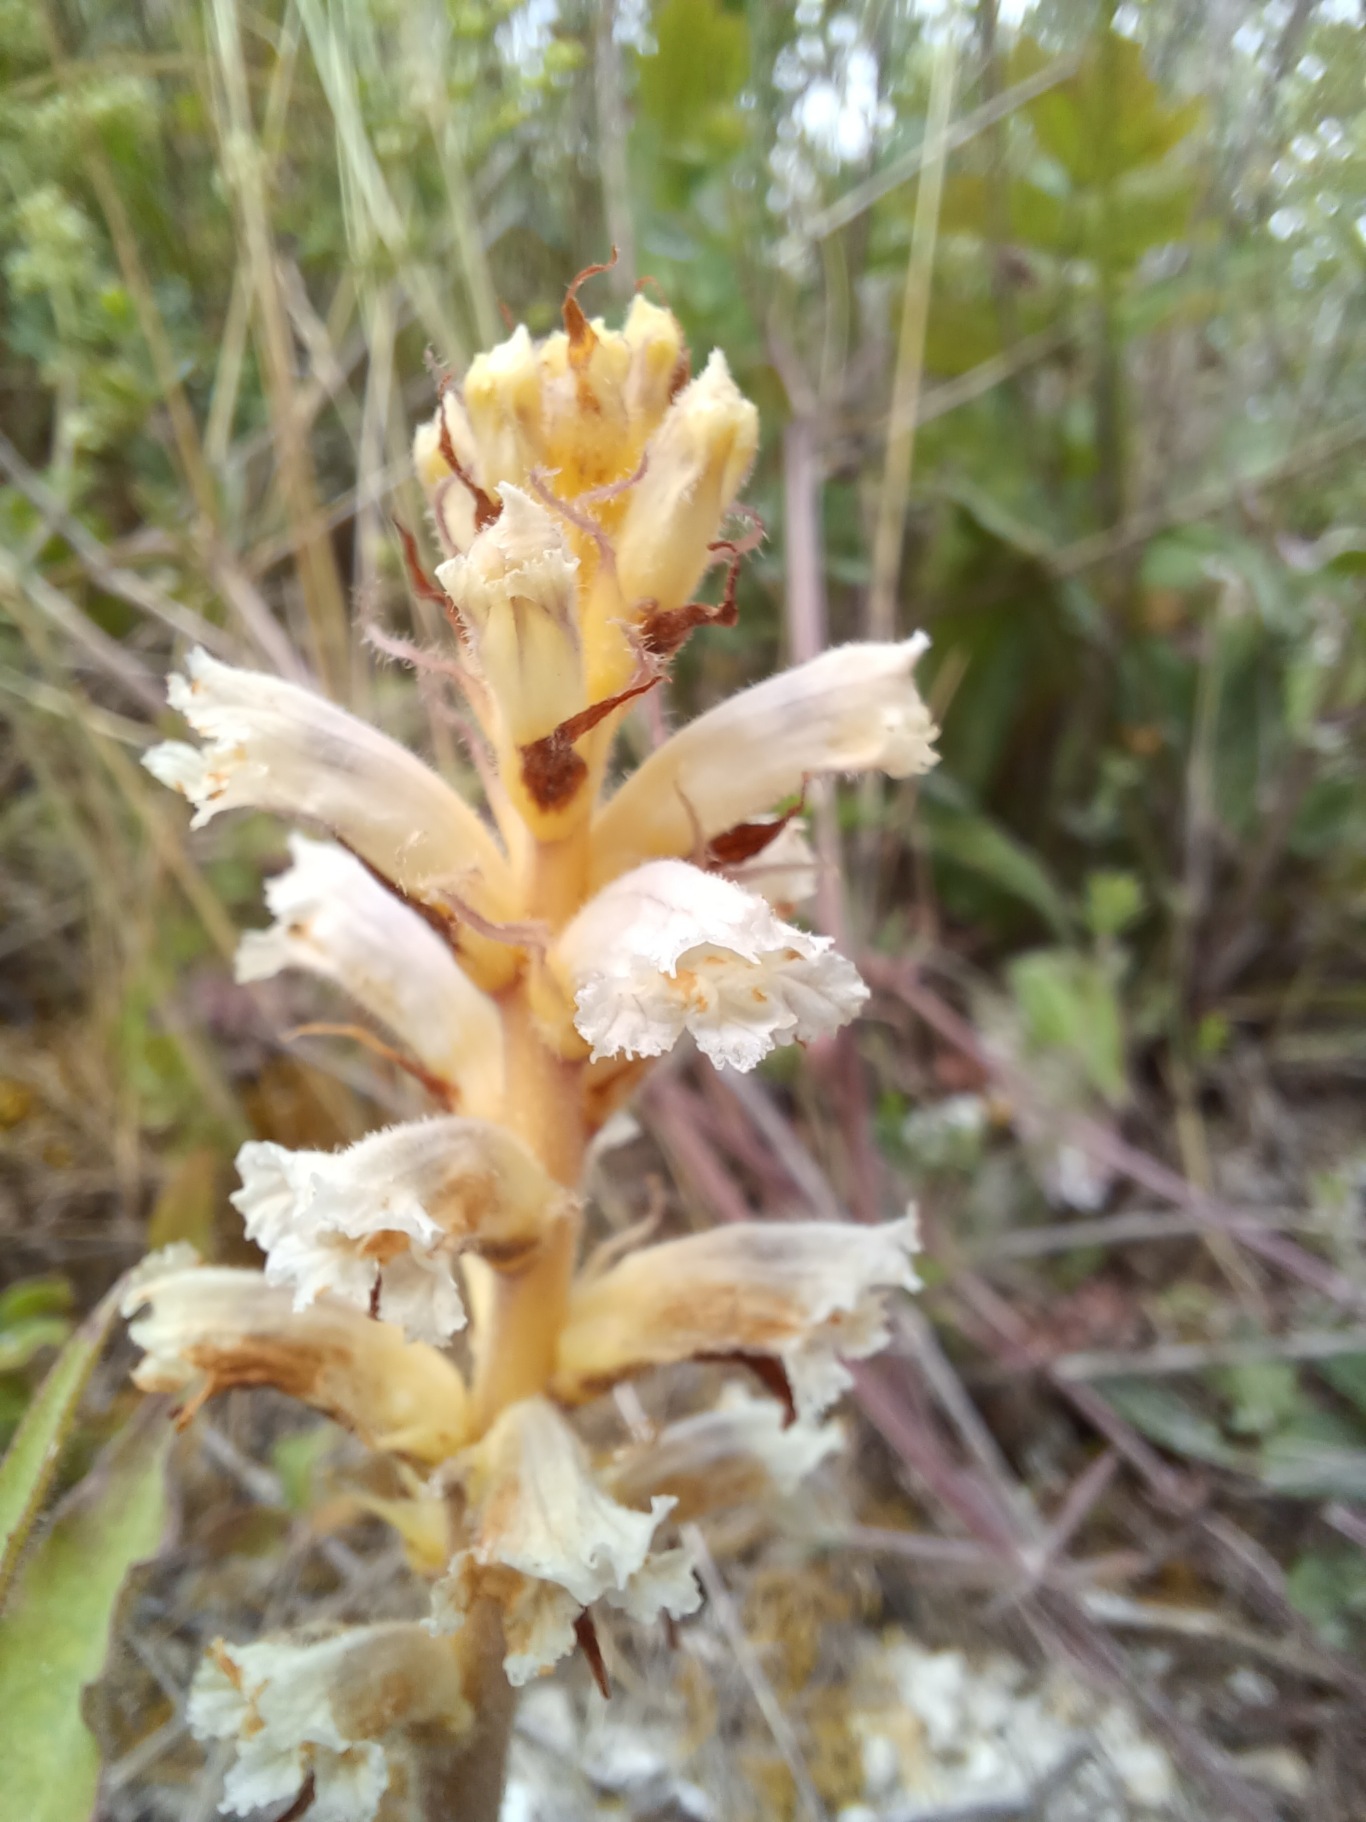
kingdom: Plantae
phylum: Tracheophyta
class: Magnoliopsida
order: Lamiales
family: Orobanchaceae
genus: Orobanche
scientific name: Orobanche picridis
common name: Bittermælk-gyvelkvæler
